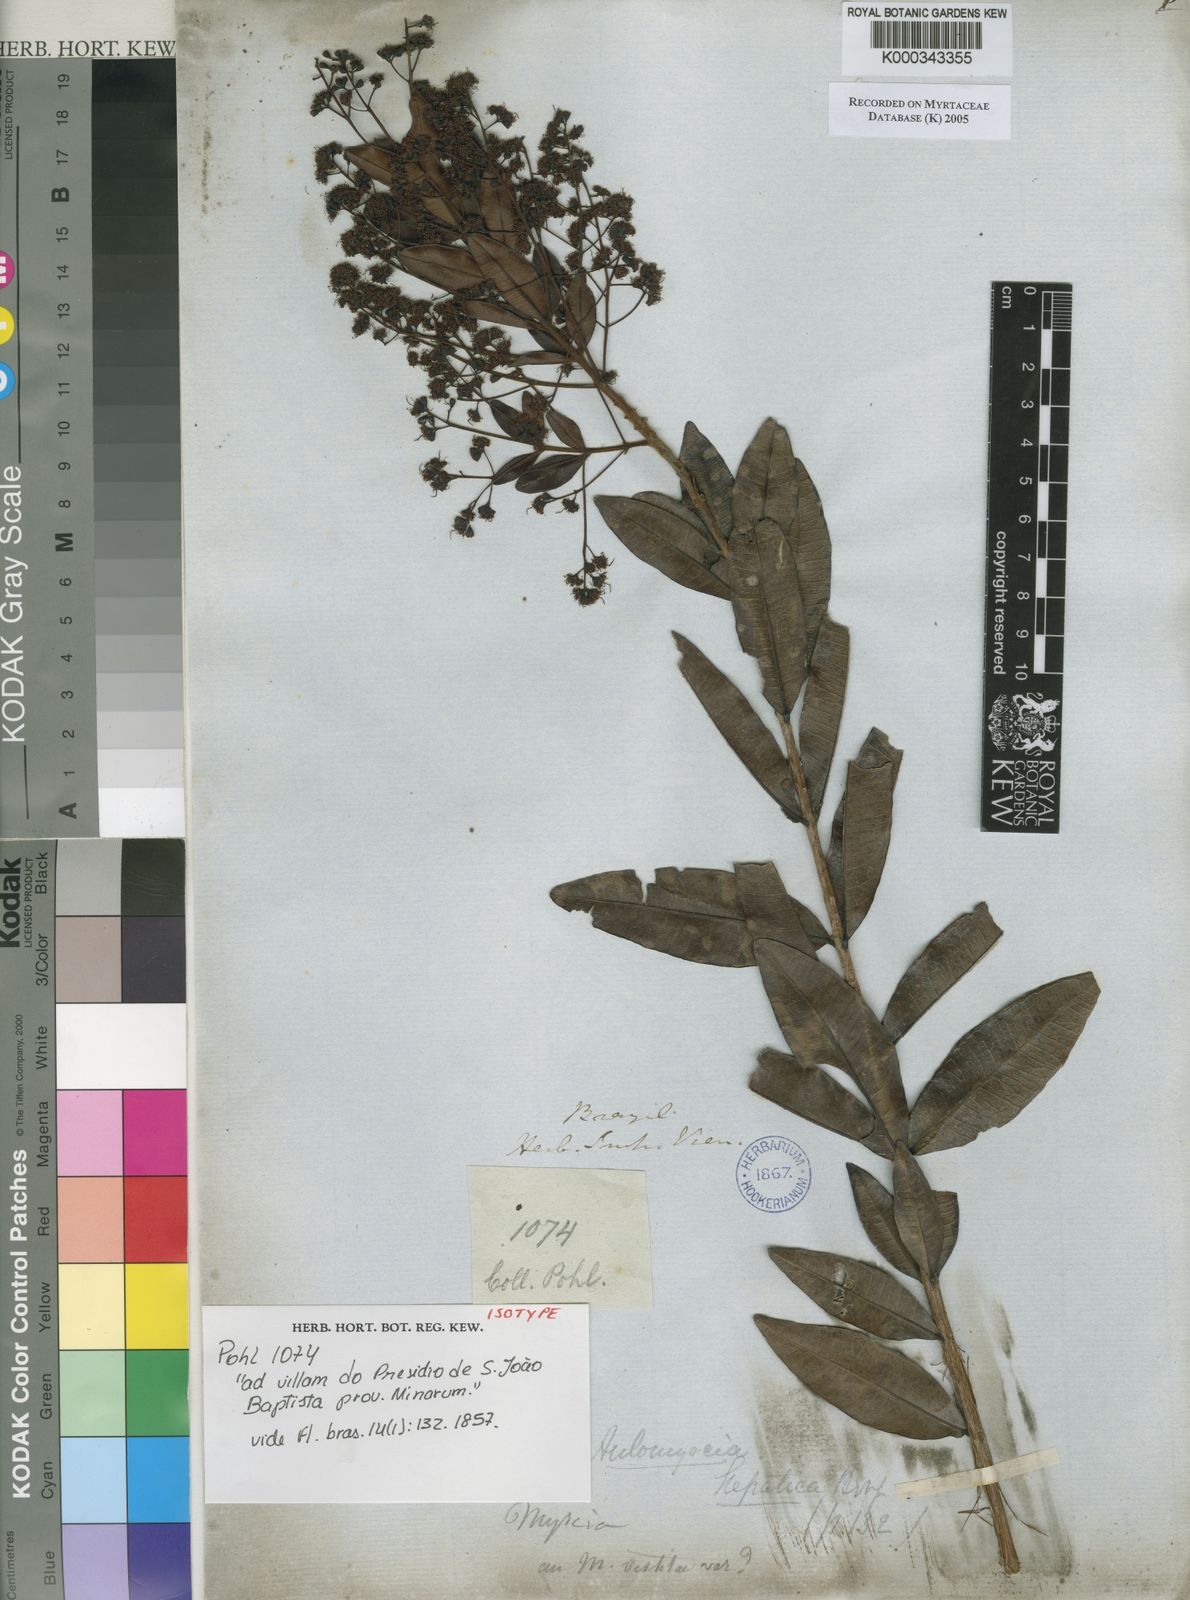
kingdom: Plantae
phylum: Tracheophyta
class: Magnoliopsida
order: Myrtales
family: Myrtaceae
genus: Myrcia
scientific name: Myrcia guianensis
